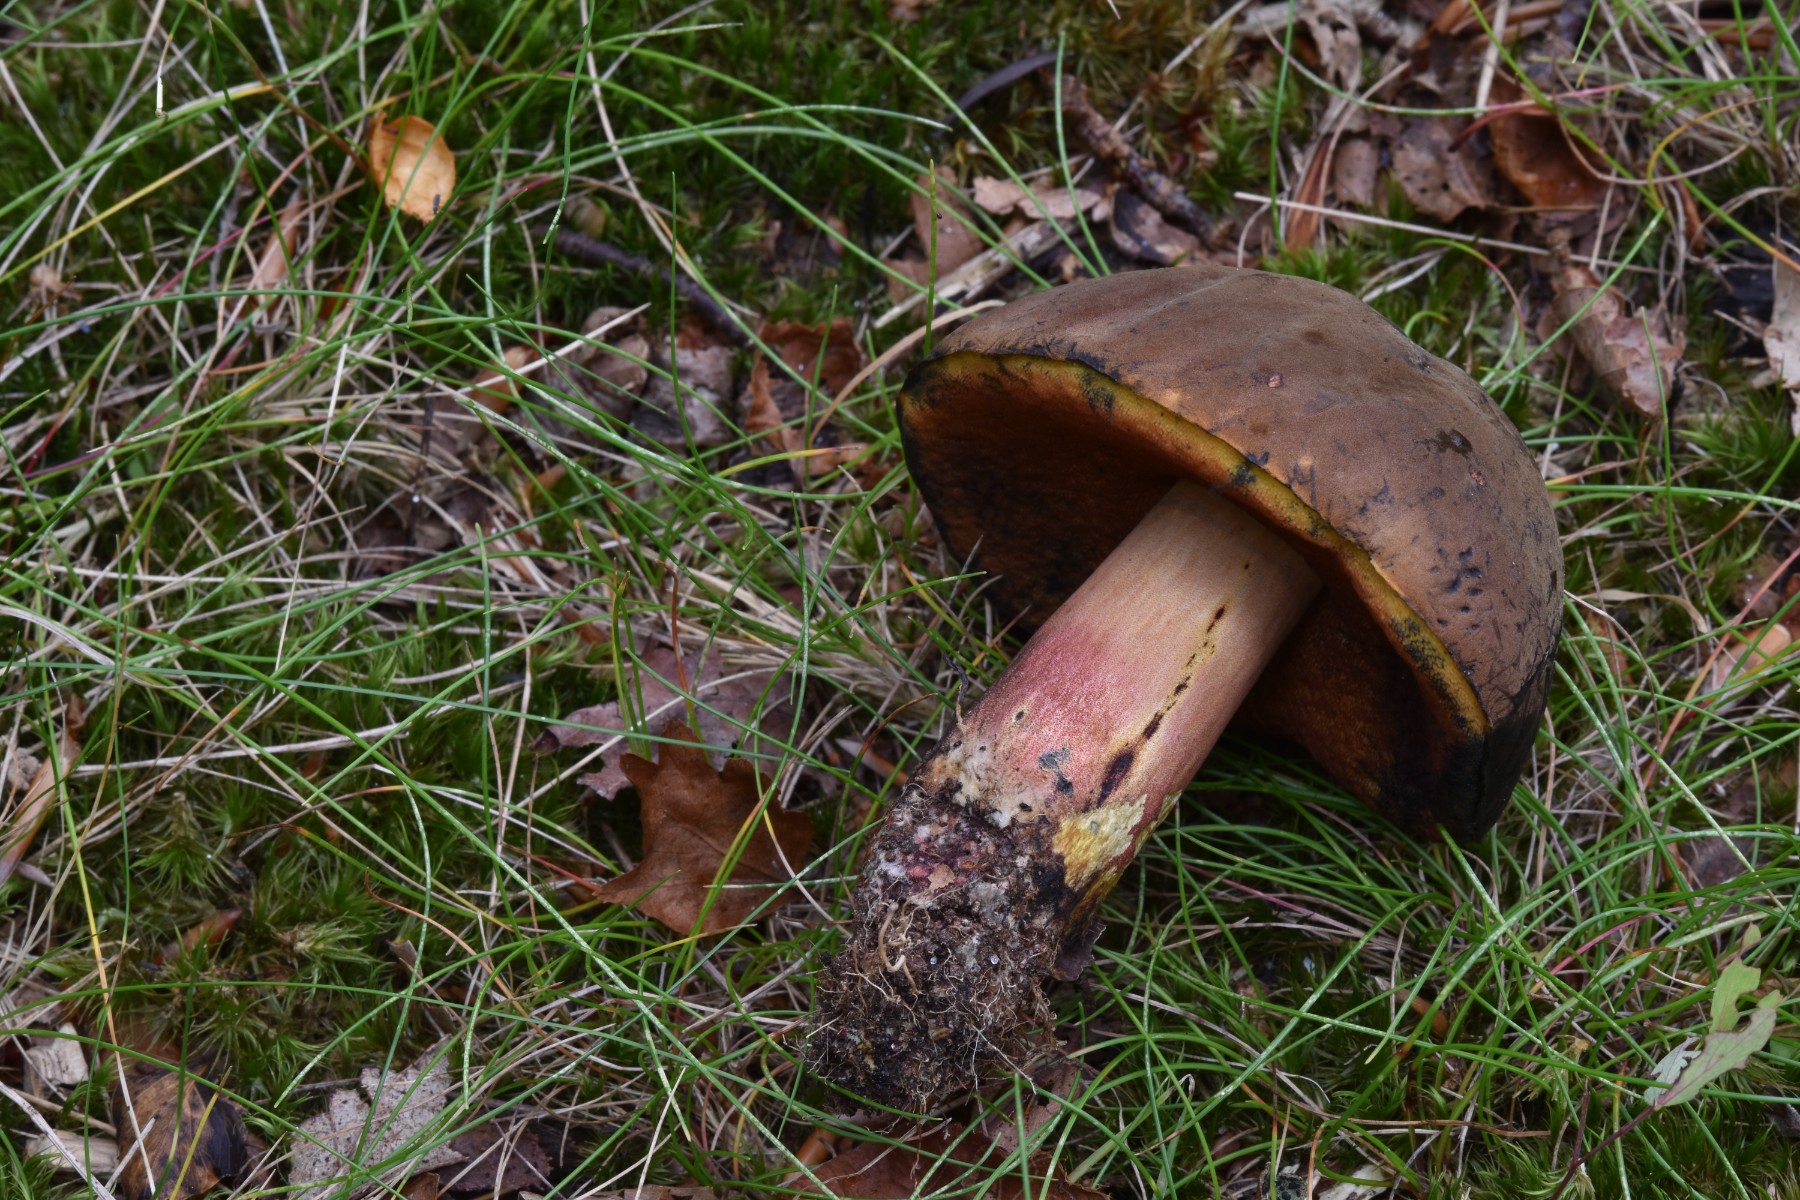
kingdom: Fungi
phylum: Basidiomycota
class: Agaricomycetes
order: Boletales
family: Boletaceae
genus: Neoboletus
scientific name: Neoboletus xanthopus
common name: finprikket indigorørhat
